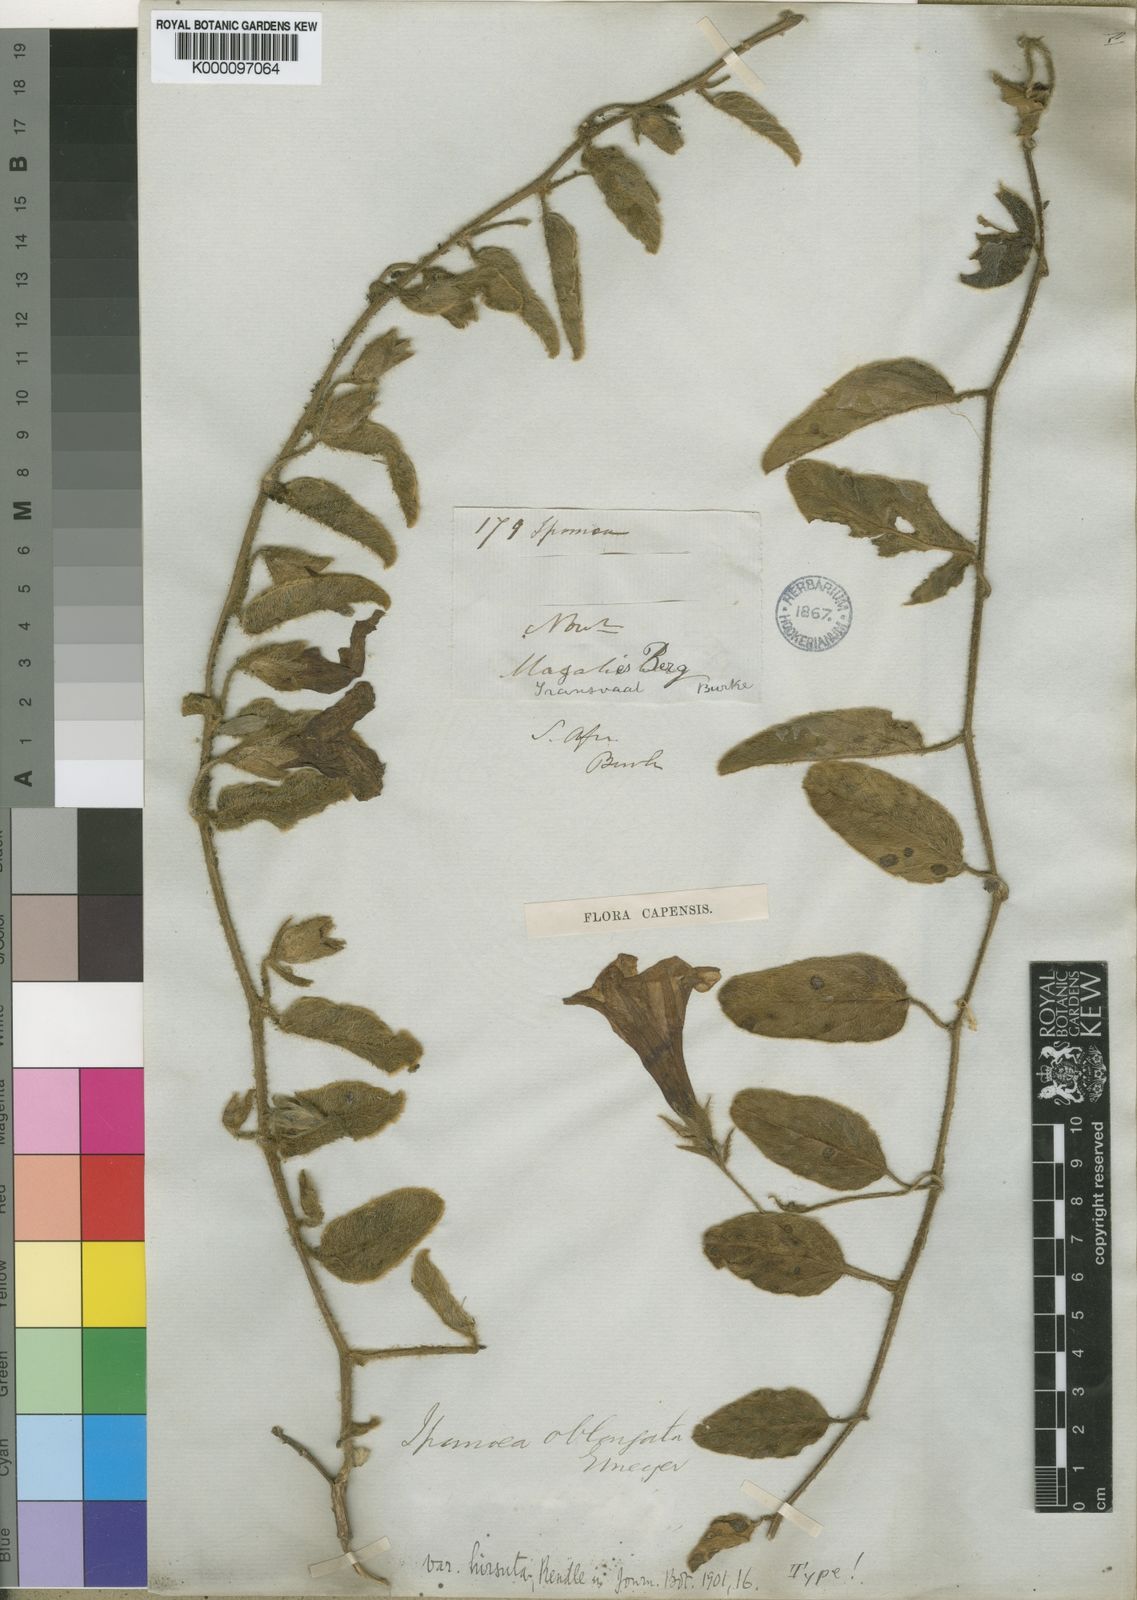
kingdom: Plantae
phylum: Tracheophyta
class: Magnoliopsida
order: Solanales
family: Convolvulaceae
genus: Ipomoea
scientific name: Ipomoea oblongata
